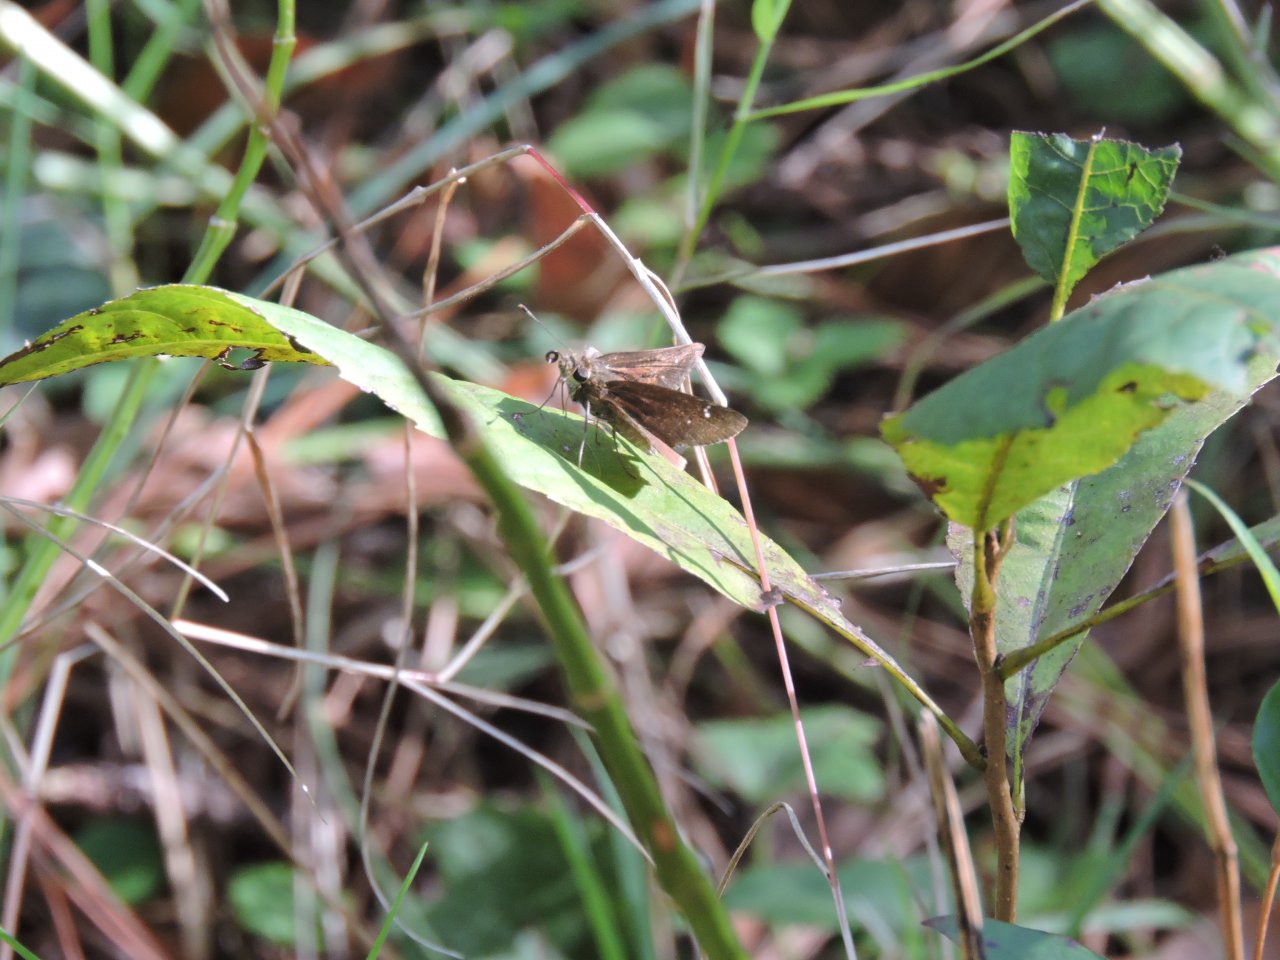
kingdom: Animalia
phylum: Arthropoda
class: Insecta
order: Lepidoptera
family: Hesperiidae
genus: Lerema
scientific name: Lerema accius
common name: Clouded Skipper
